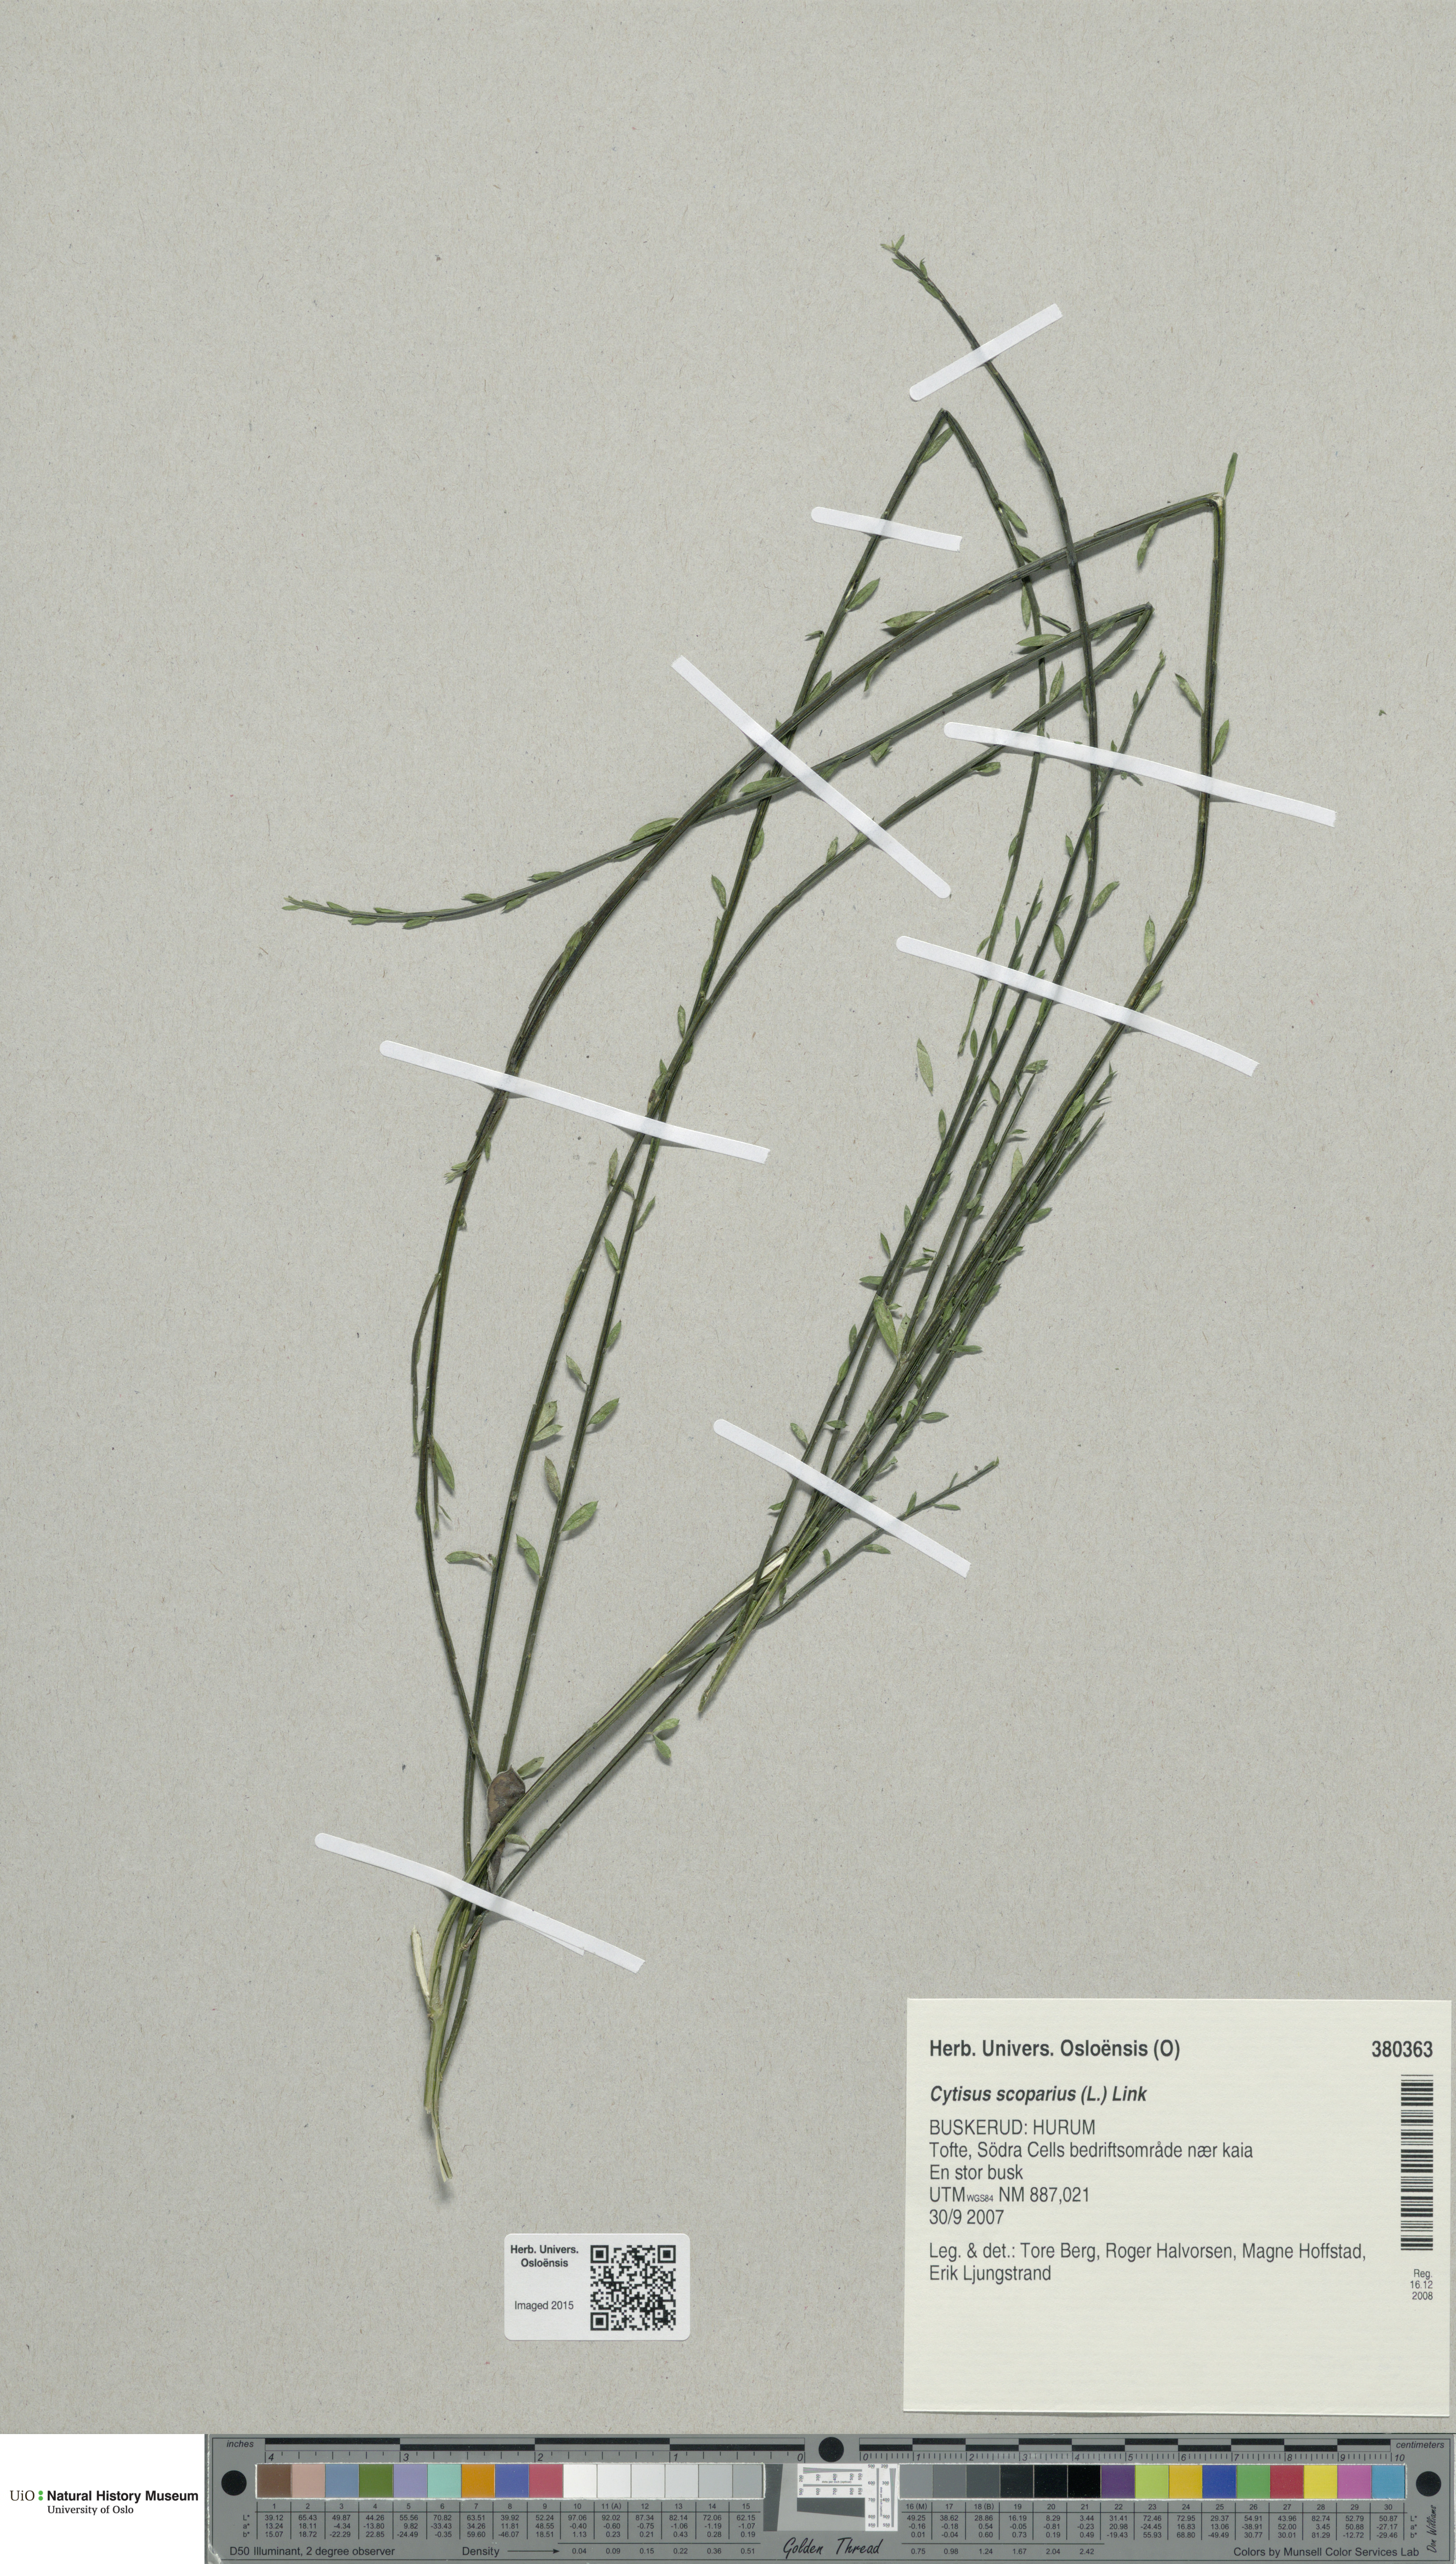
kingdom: Plantae
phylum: Tracheophyta
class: Magnoliopsida
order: Fabales
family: Fabaceae
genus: Cytisus
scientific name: Cytisus scoparius
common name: Scotch broom
